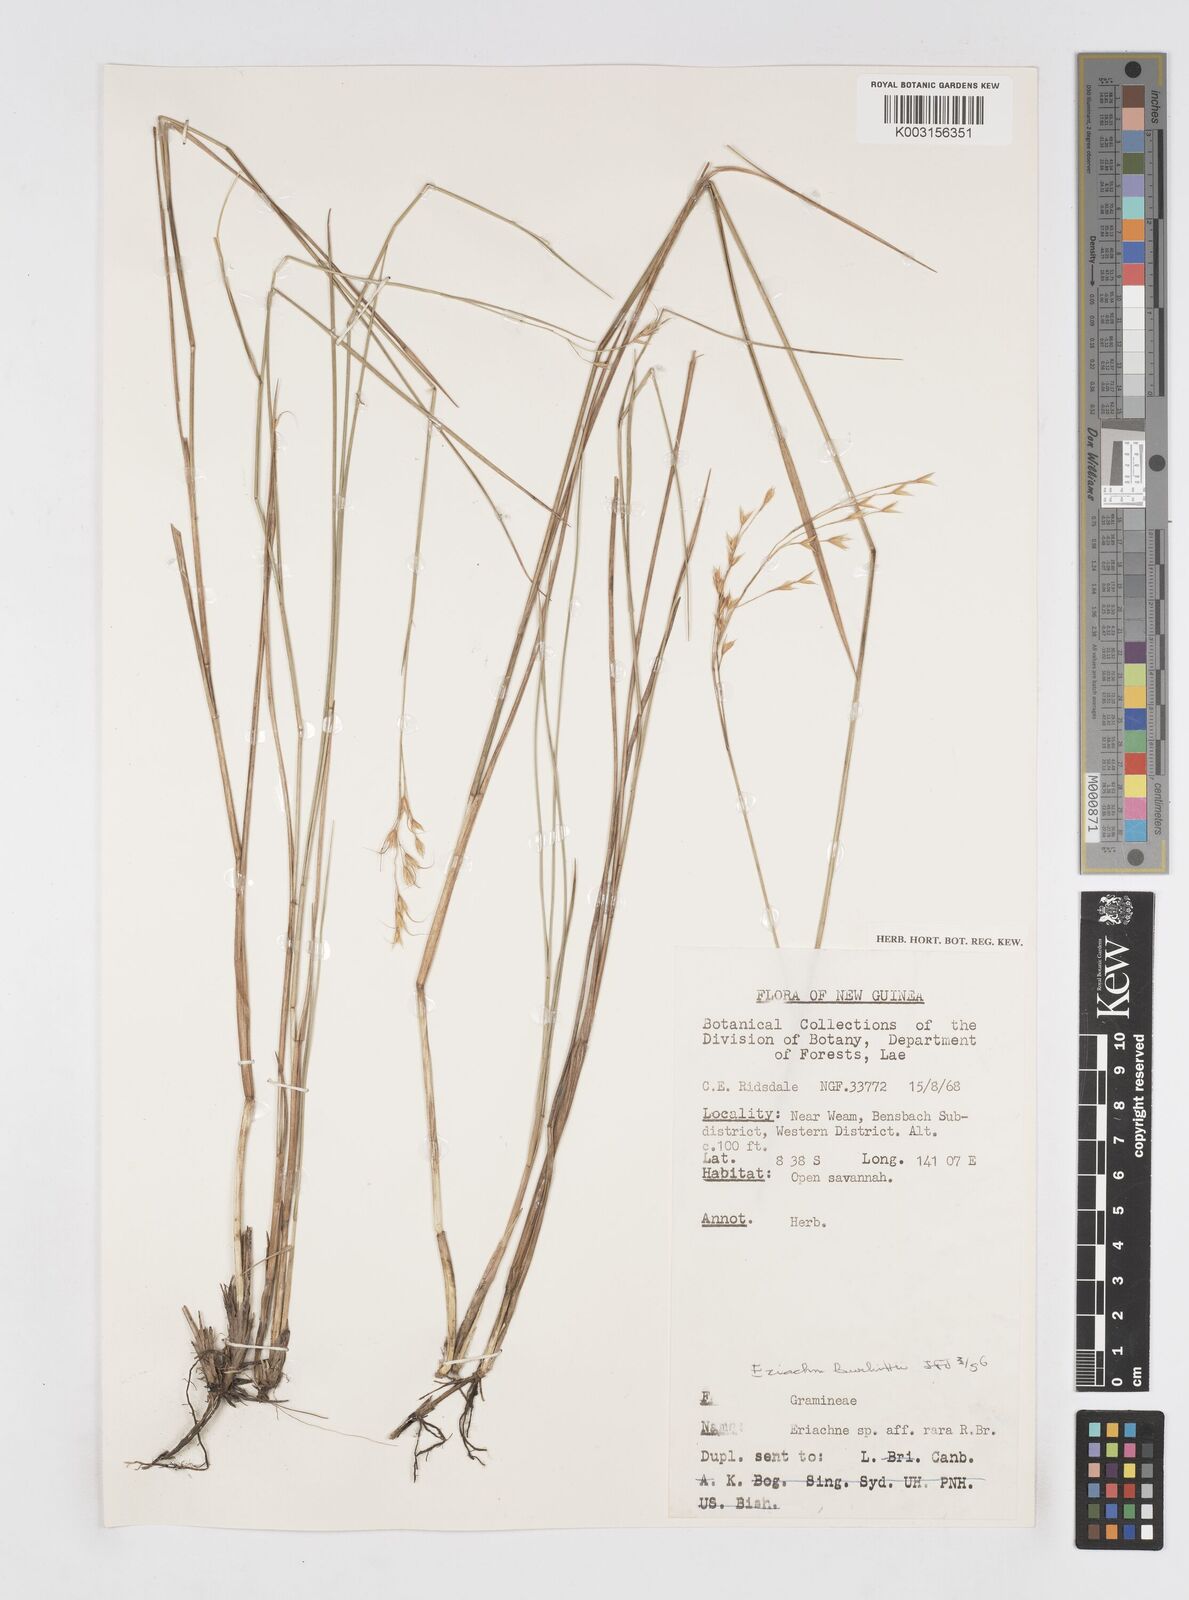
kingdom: Plantae
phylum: Tracheophyta
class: Liliopsida
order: Poales
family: Poaceae
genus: Eriachne
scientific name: Eriachne burkittii
